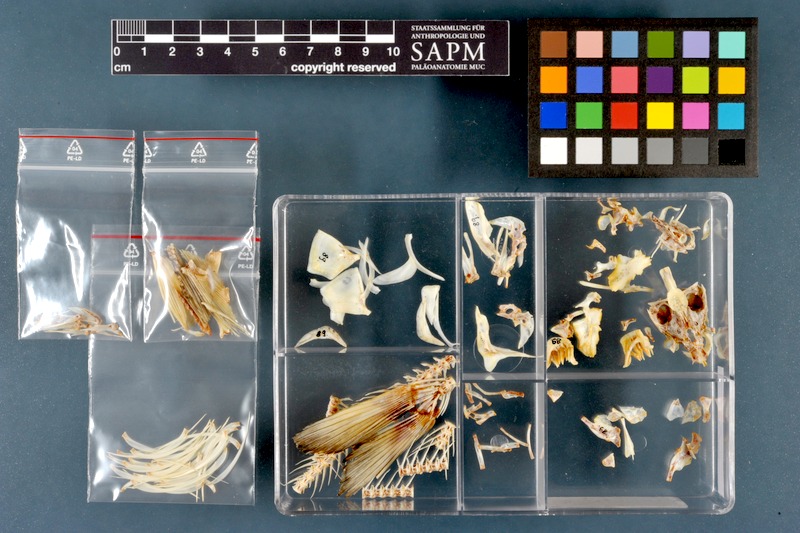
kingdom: Animalia
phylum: Chordata
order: Cypriniformes
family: Cyprinidae
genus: Chondrostoma
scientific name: Chondrostoma regium
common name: Mesopotamian nase
